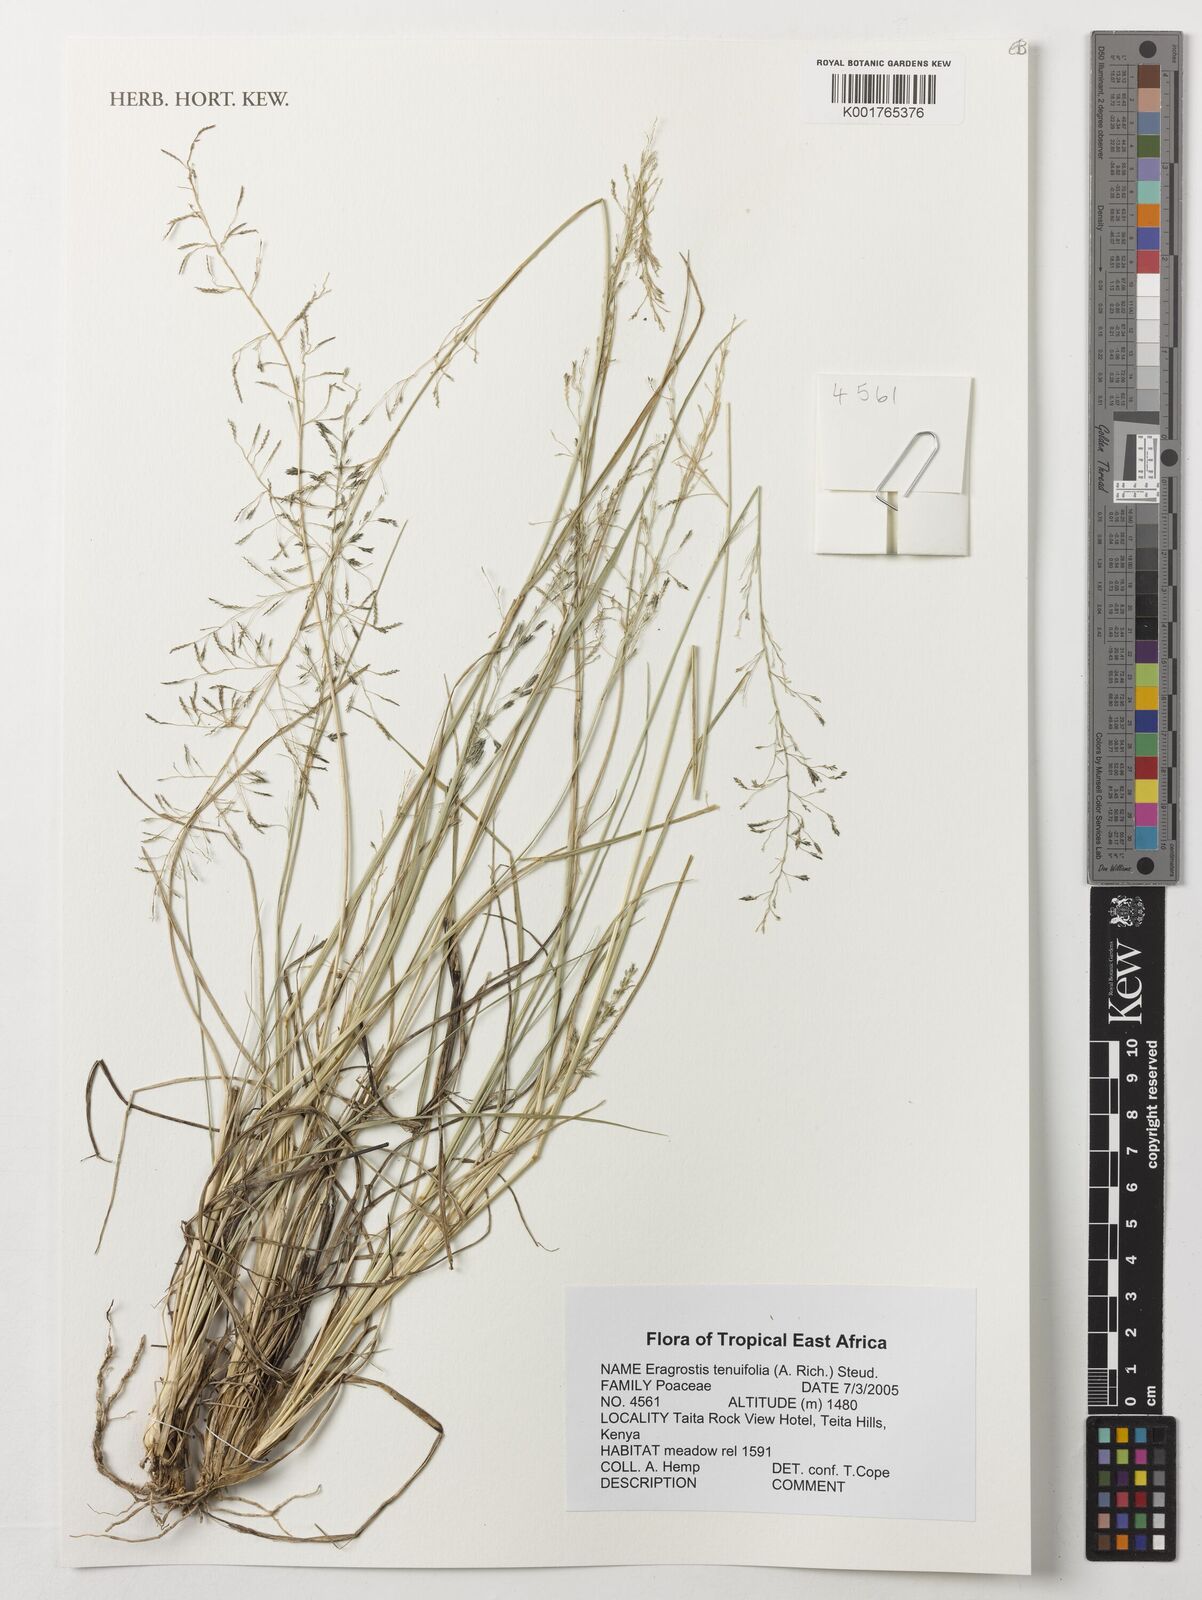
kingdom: Plantae
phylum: Tracheophyta
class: Liliopsida
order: Poales
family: Poaceae
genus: Eragrostis
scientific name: Eragrostis tenuifolia
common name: Elastic grass
